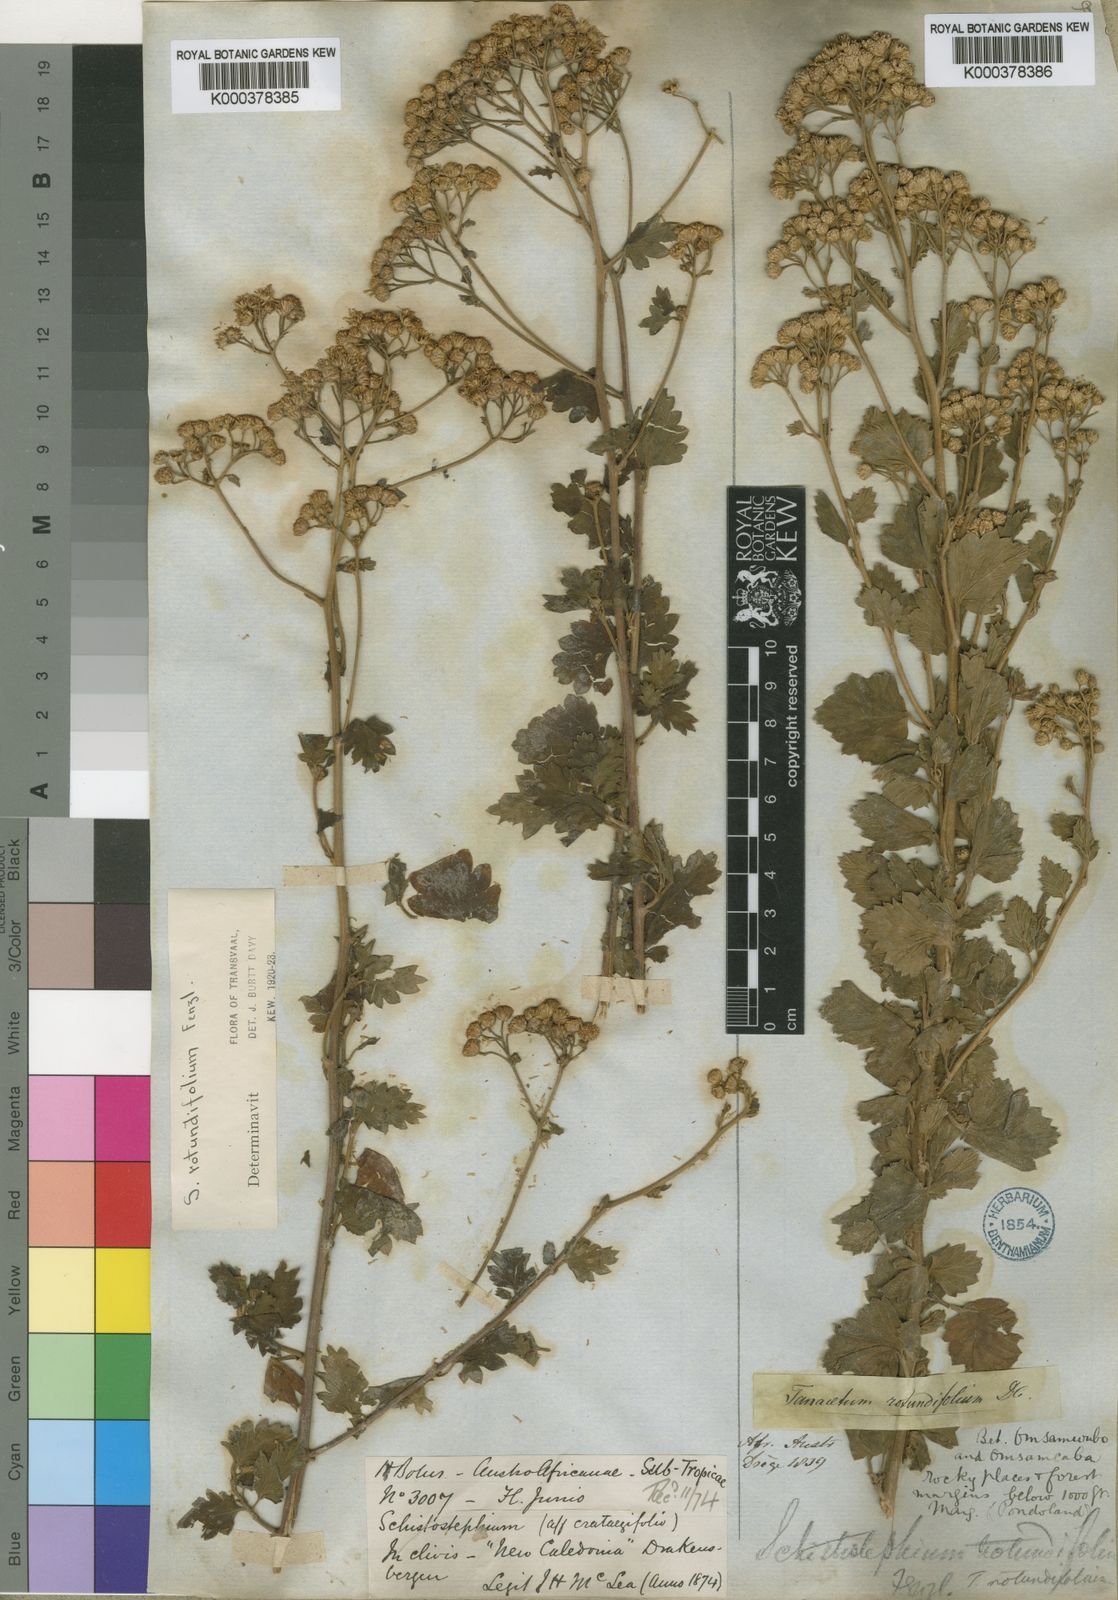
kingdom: Plantae
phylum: Tracheophyta
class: Magnoliopsida
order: Asterales
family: Asteraceae
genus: Schistostephium
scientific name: Schistostephium rotundifolium
